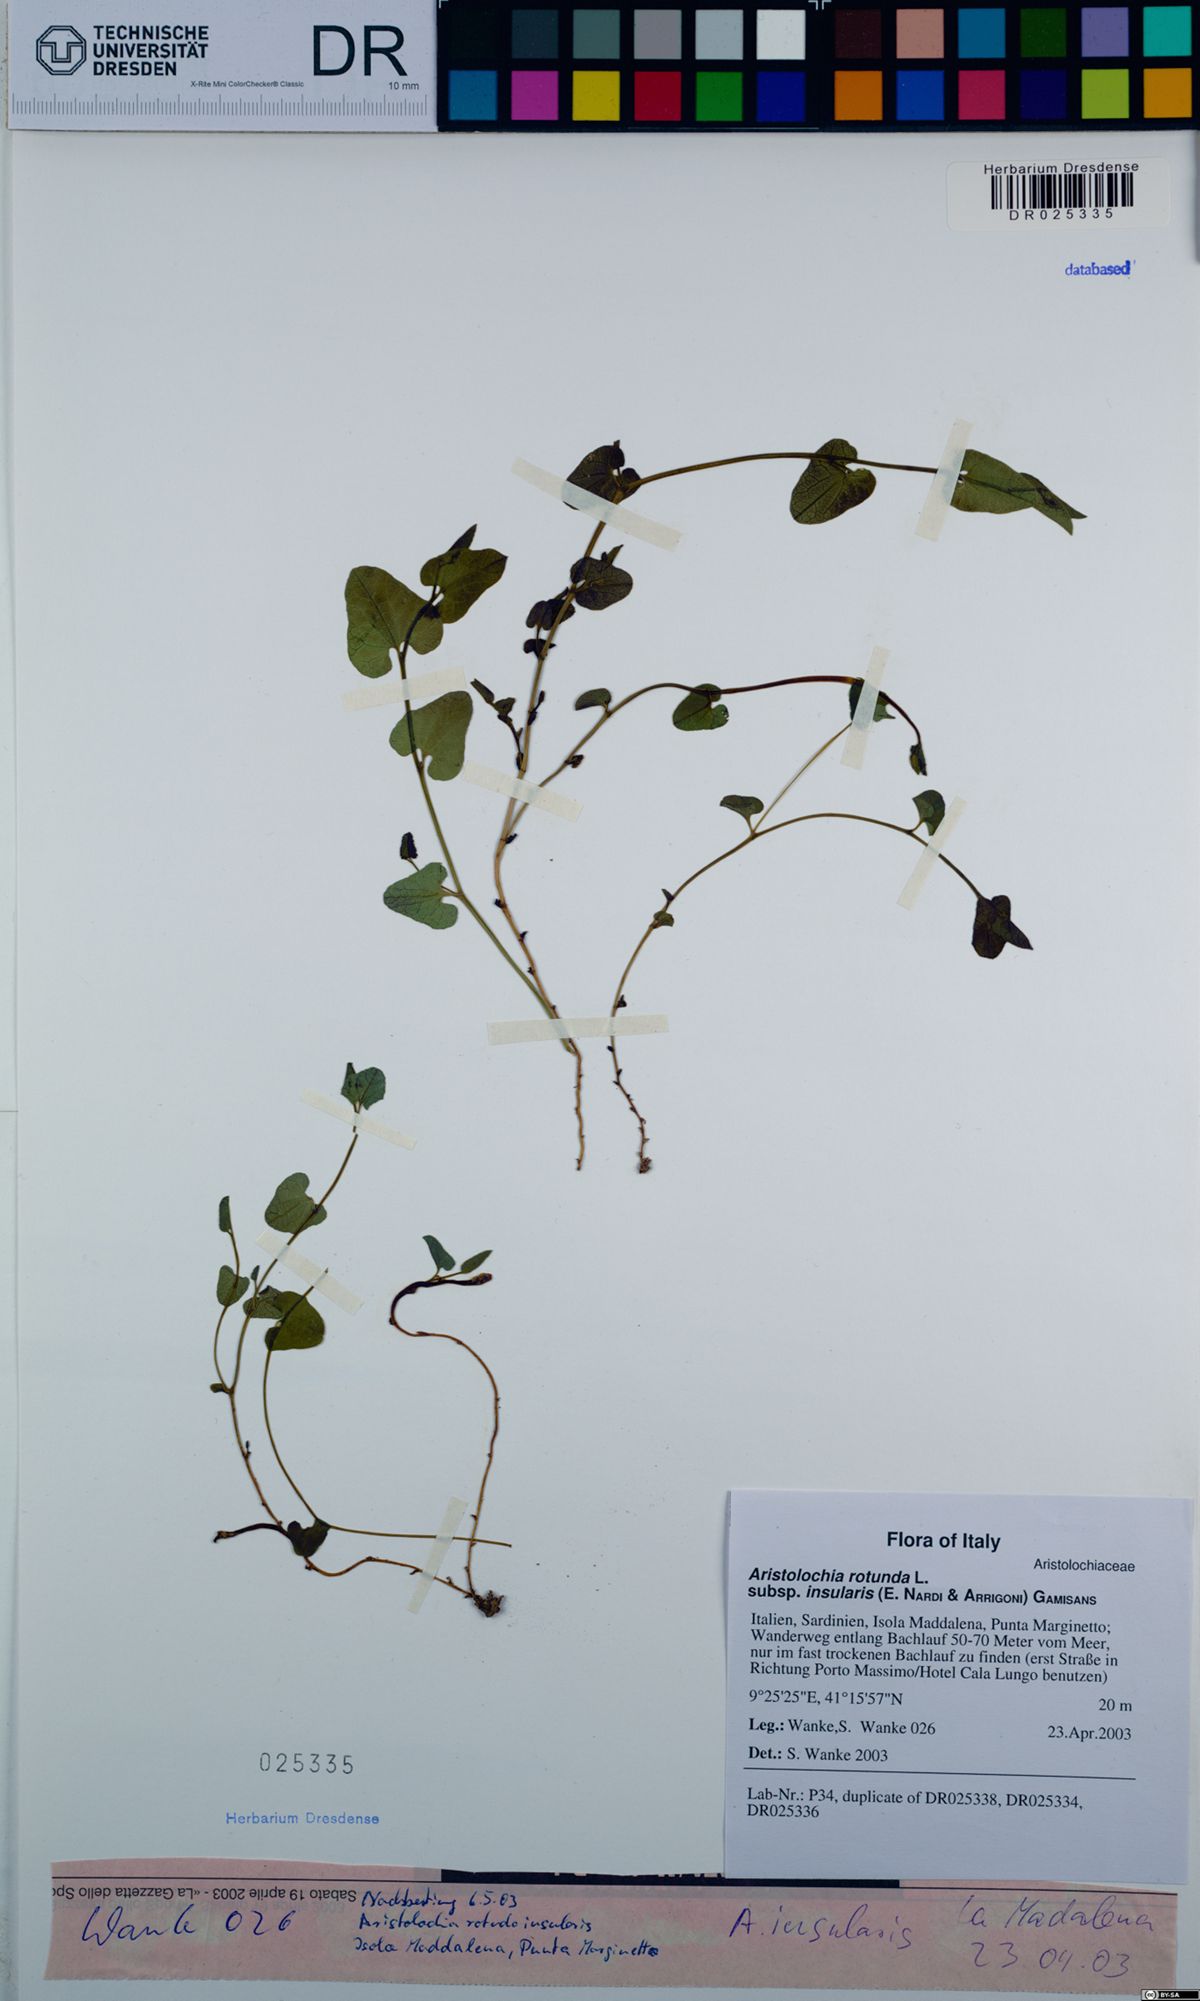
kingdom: Plantae
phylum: Tracheophyta
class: Magnoliopsida
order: Piperales
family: Aristolochiaceae
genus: Aristolochia
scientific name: Aristolochia rotunda
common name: Smearwort
